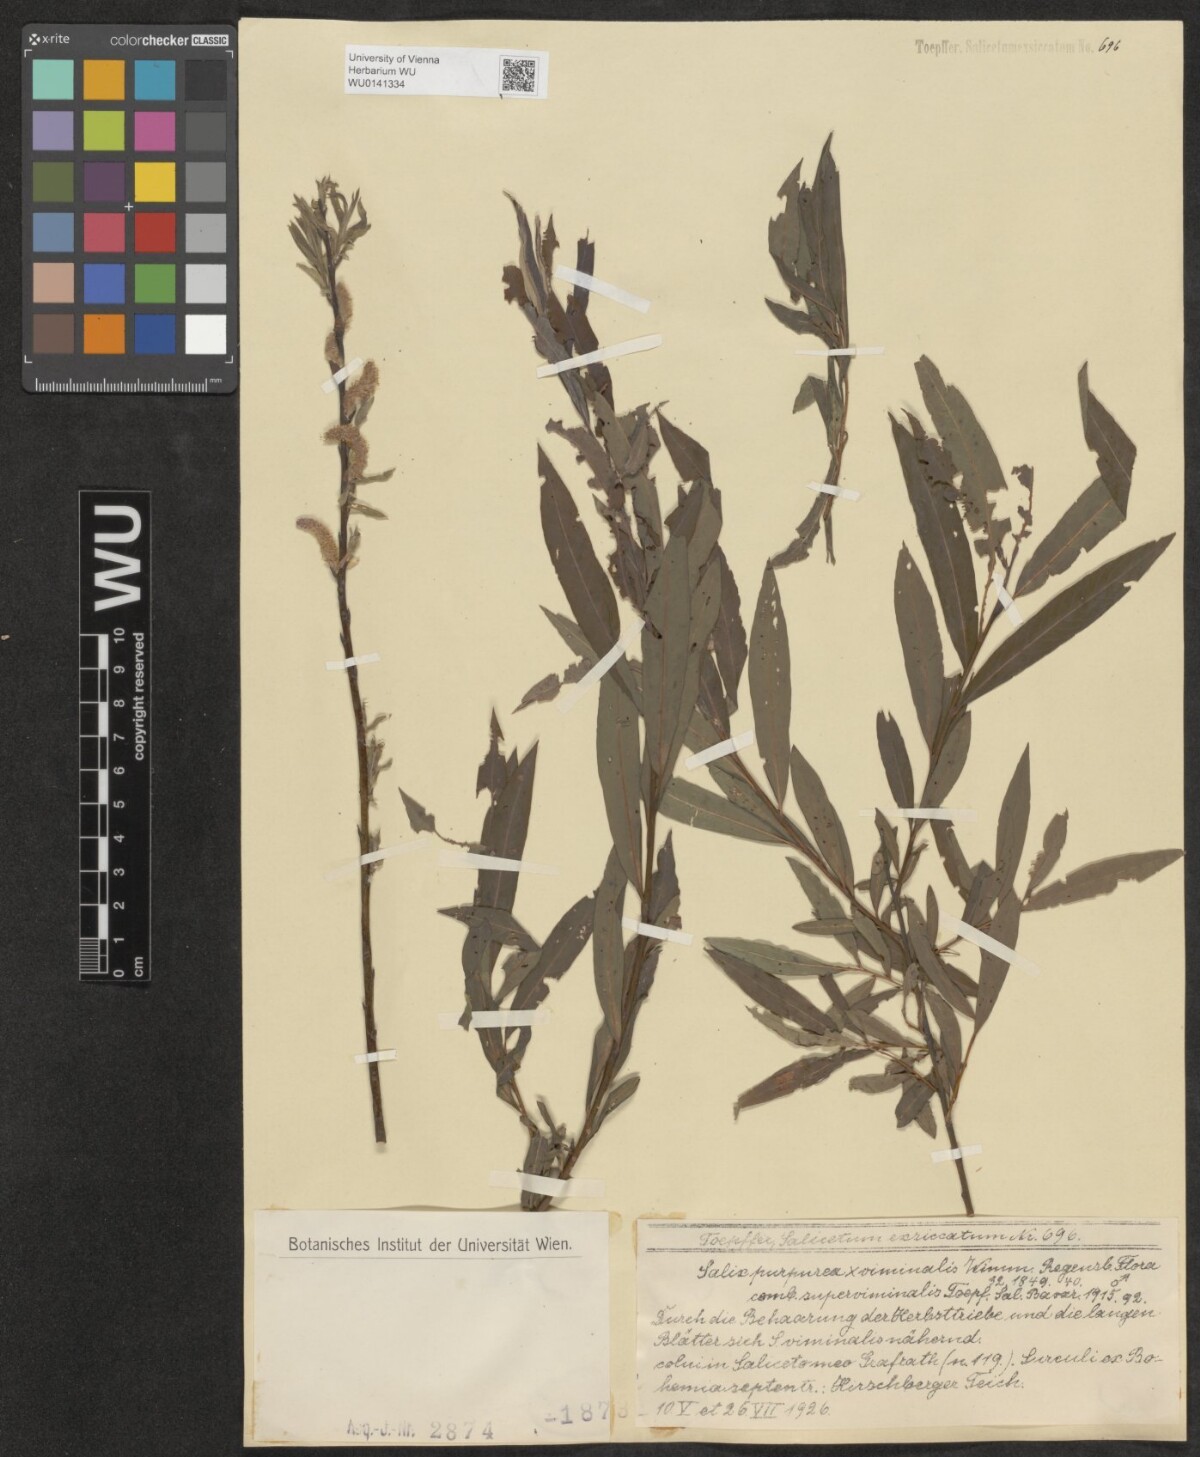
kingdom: Plantae
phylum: Tracheophyta
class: Magnoliopsida
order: Malpighiales
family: Salicaceae
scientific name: Salicaceae
